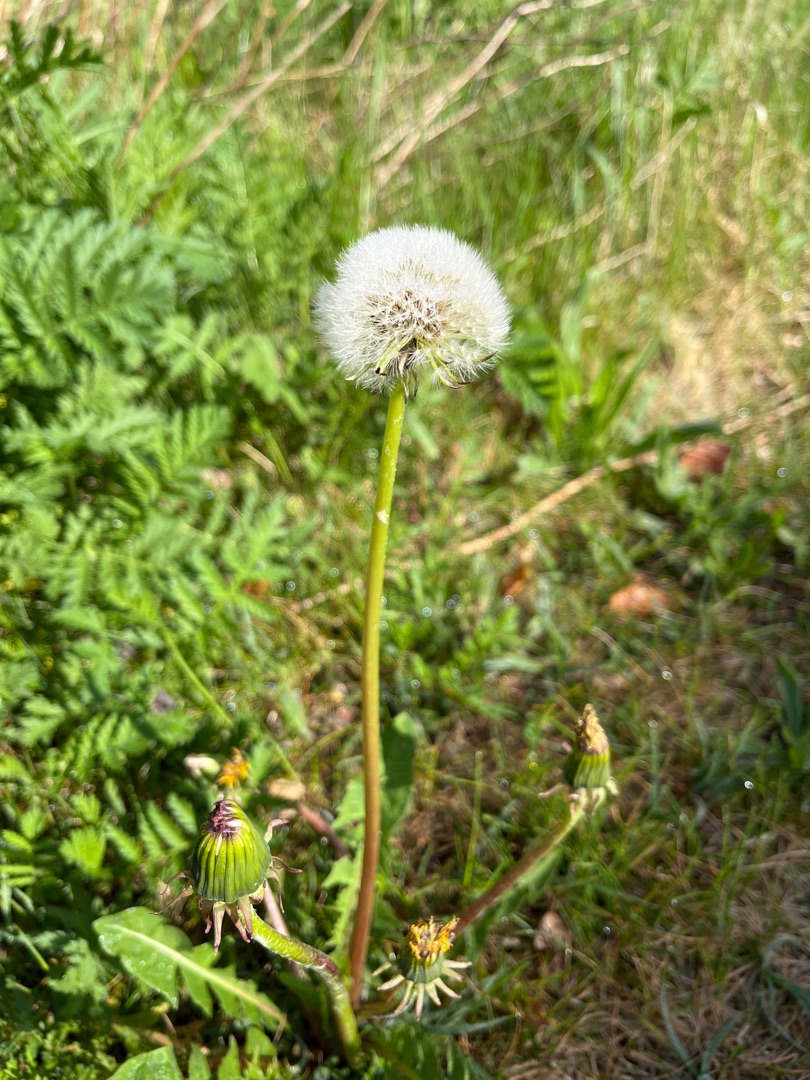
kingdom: Plantae
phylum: Tracheophyta
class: Magnoliopsida
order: Asterales
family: Asteraceae
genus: Taraxacum
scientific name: Taraxacum
